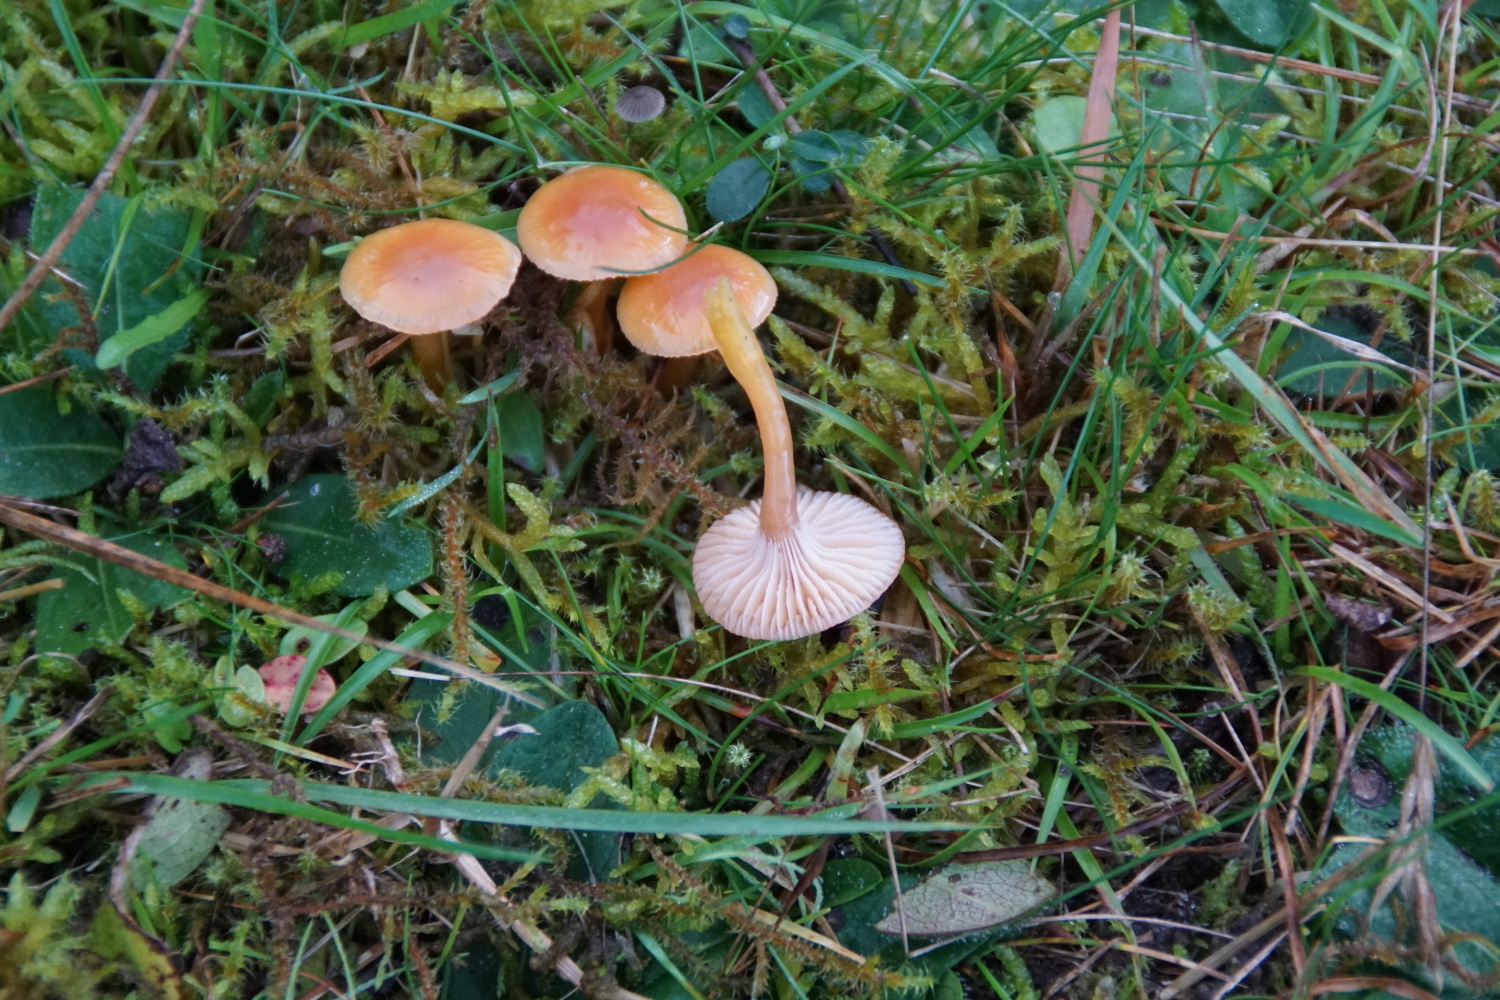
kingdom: Fungi
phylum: Basidiomycota
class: Agaricomycetes
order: Agaricales
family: Hygrophoraceae
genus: Gliophorus
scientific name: Gliophorus laetus
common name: brusk-vokshat
